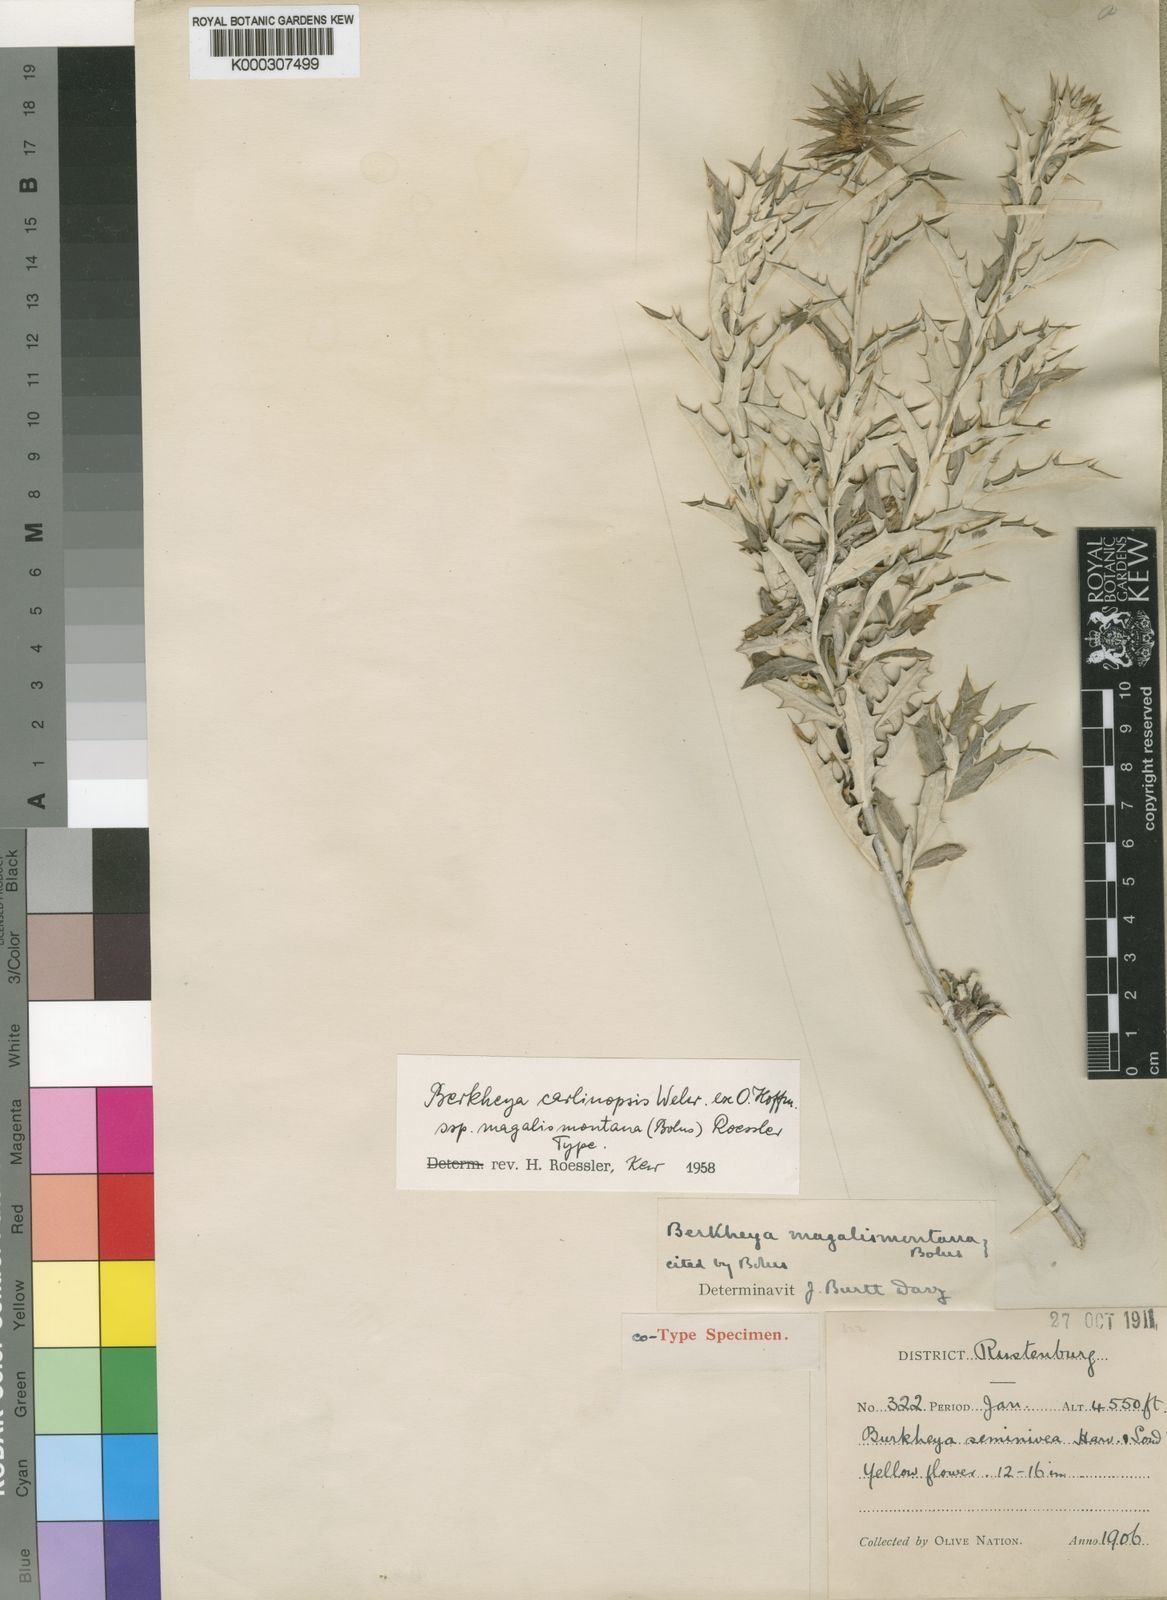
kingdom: Plantae
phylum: Tracheophyta
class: Magnoliopsida
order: Asterales
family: Asteraceae
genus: Berkheya
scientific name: Berkheya carlinopsis
